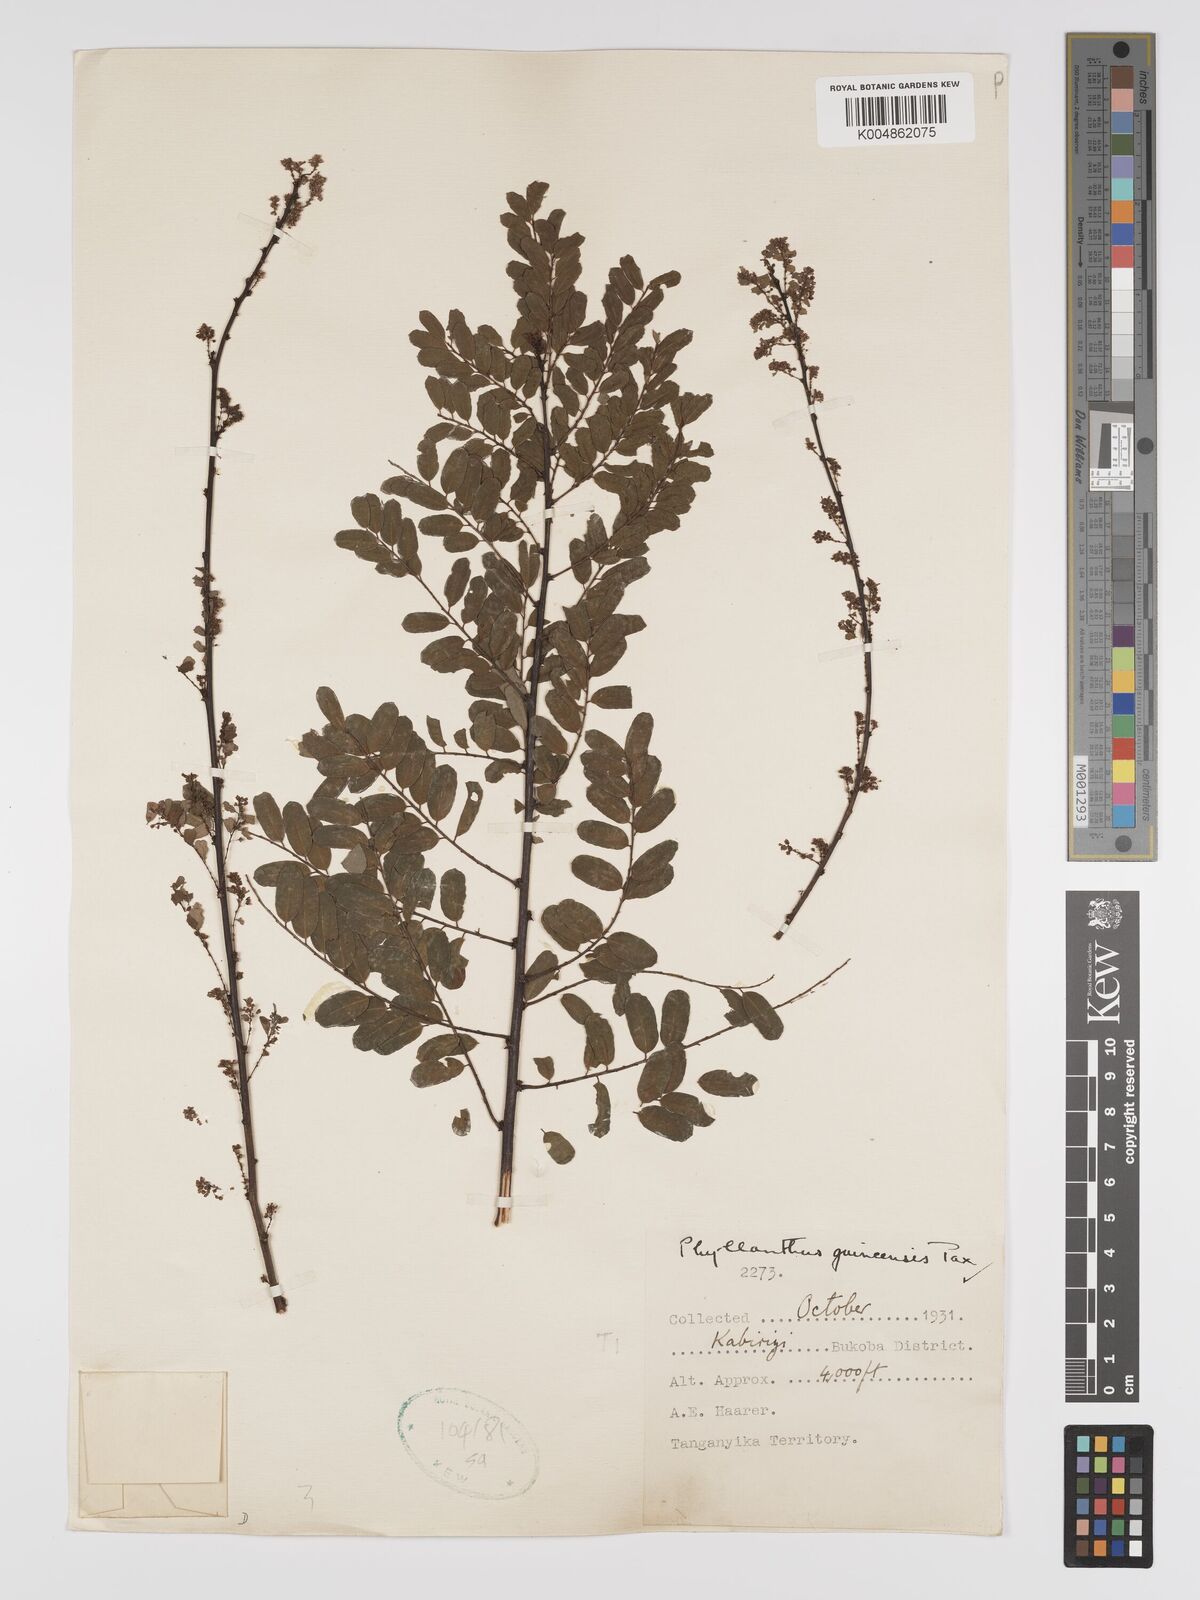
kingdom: Plantae
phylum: Tracheophyta
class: Magnoliopsida
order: Malpighiales
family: Phyllanthaceae
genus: Phyllanthus
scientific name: Phyllanthus ovalifolius
